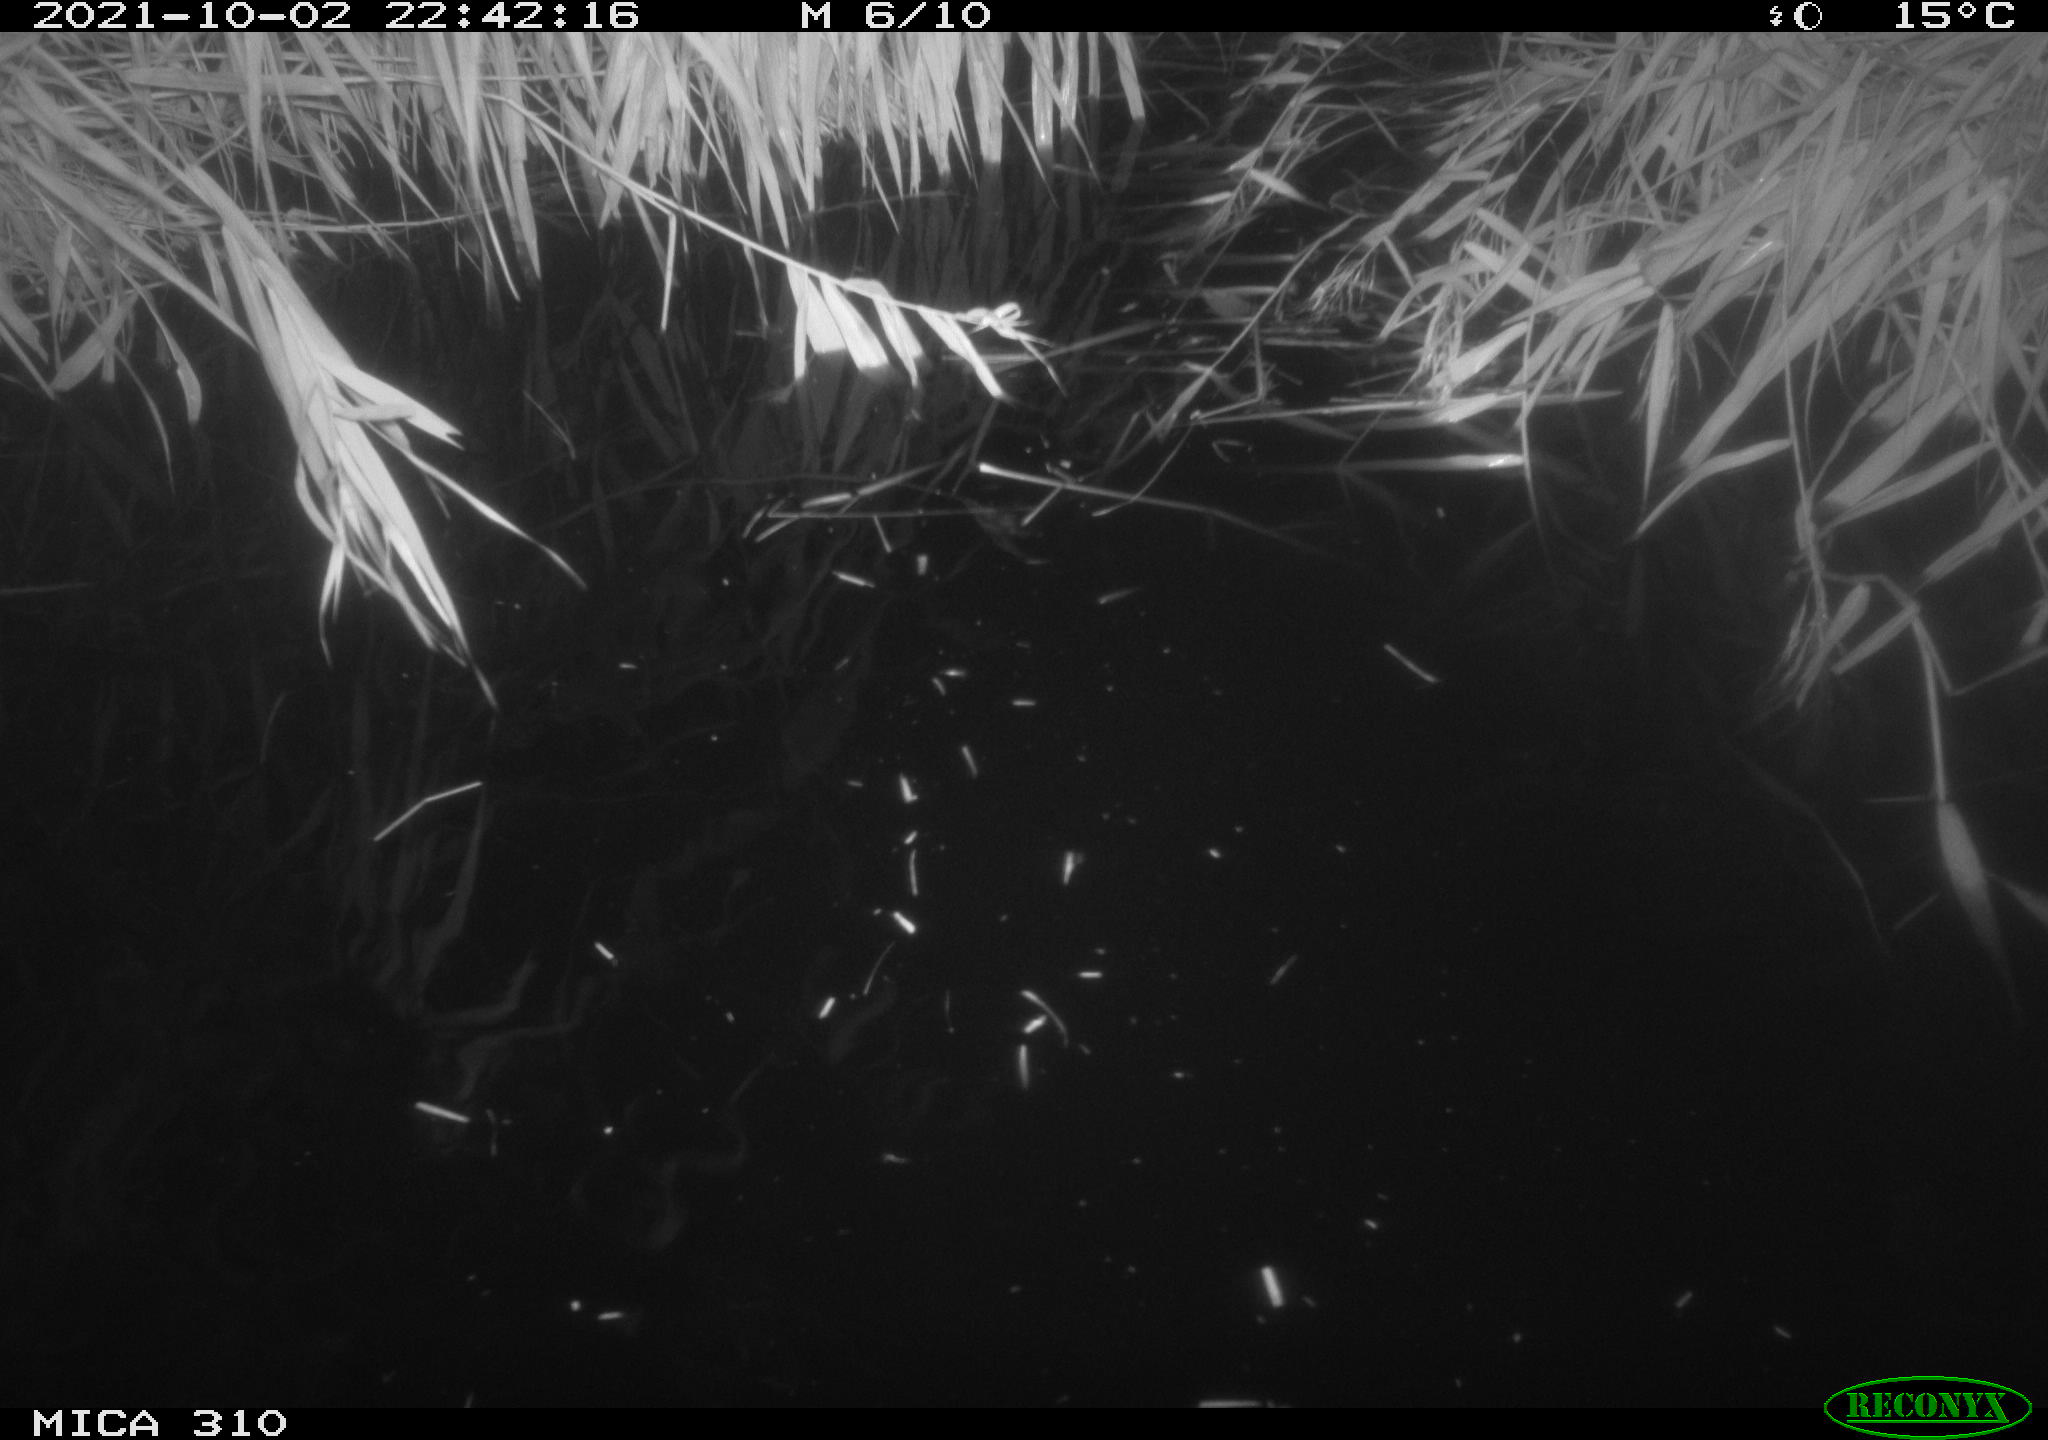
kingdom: Animalia
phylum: Chordata
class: Aves
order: Gruiformes
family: Rallidae
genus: Gallinula
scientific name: Gallinula chloropus
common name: Common moorhen
